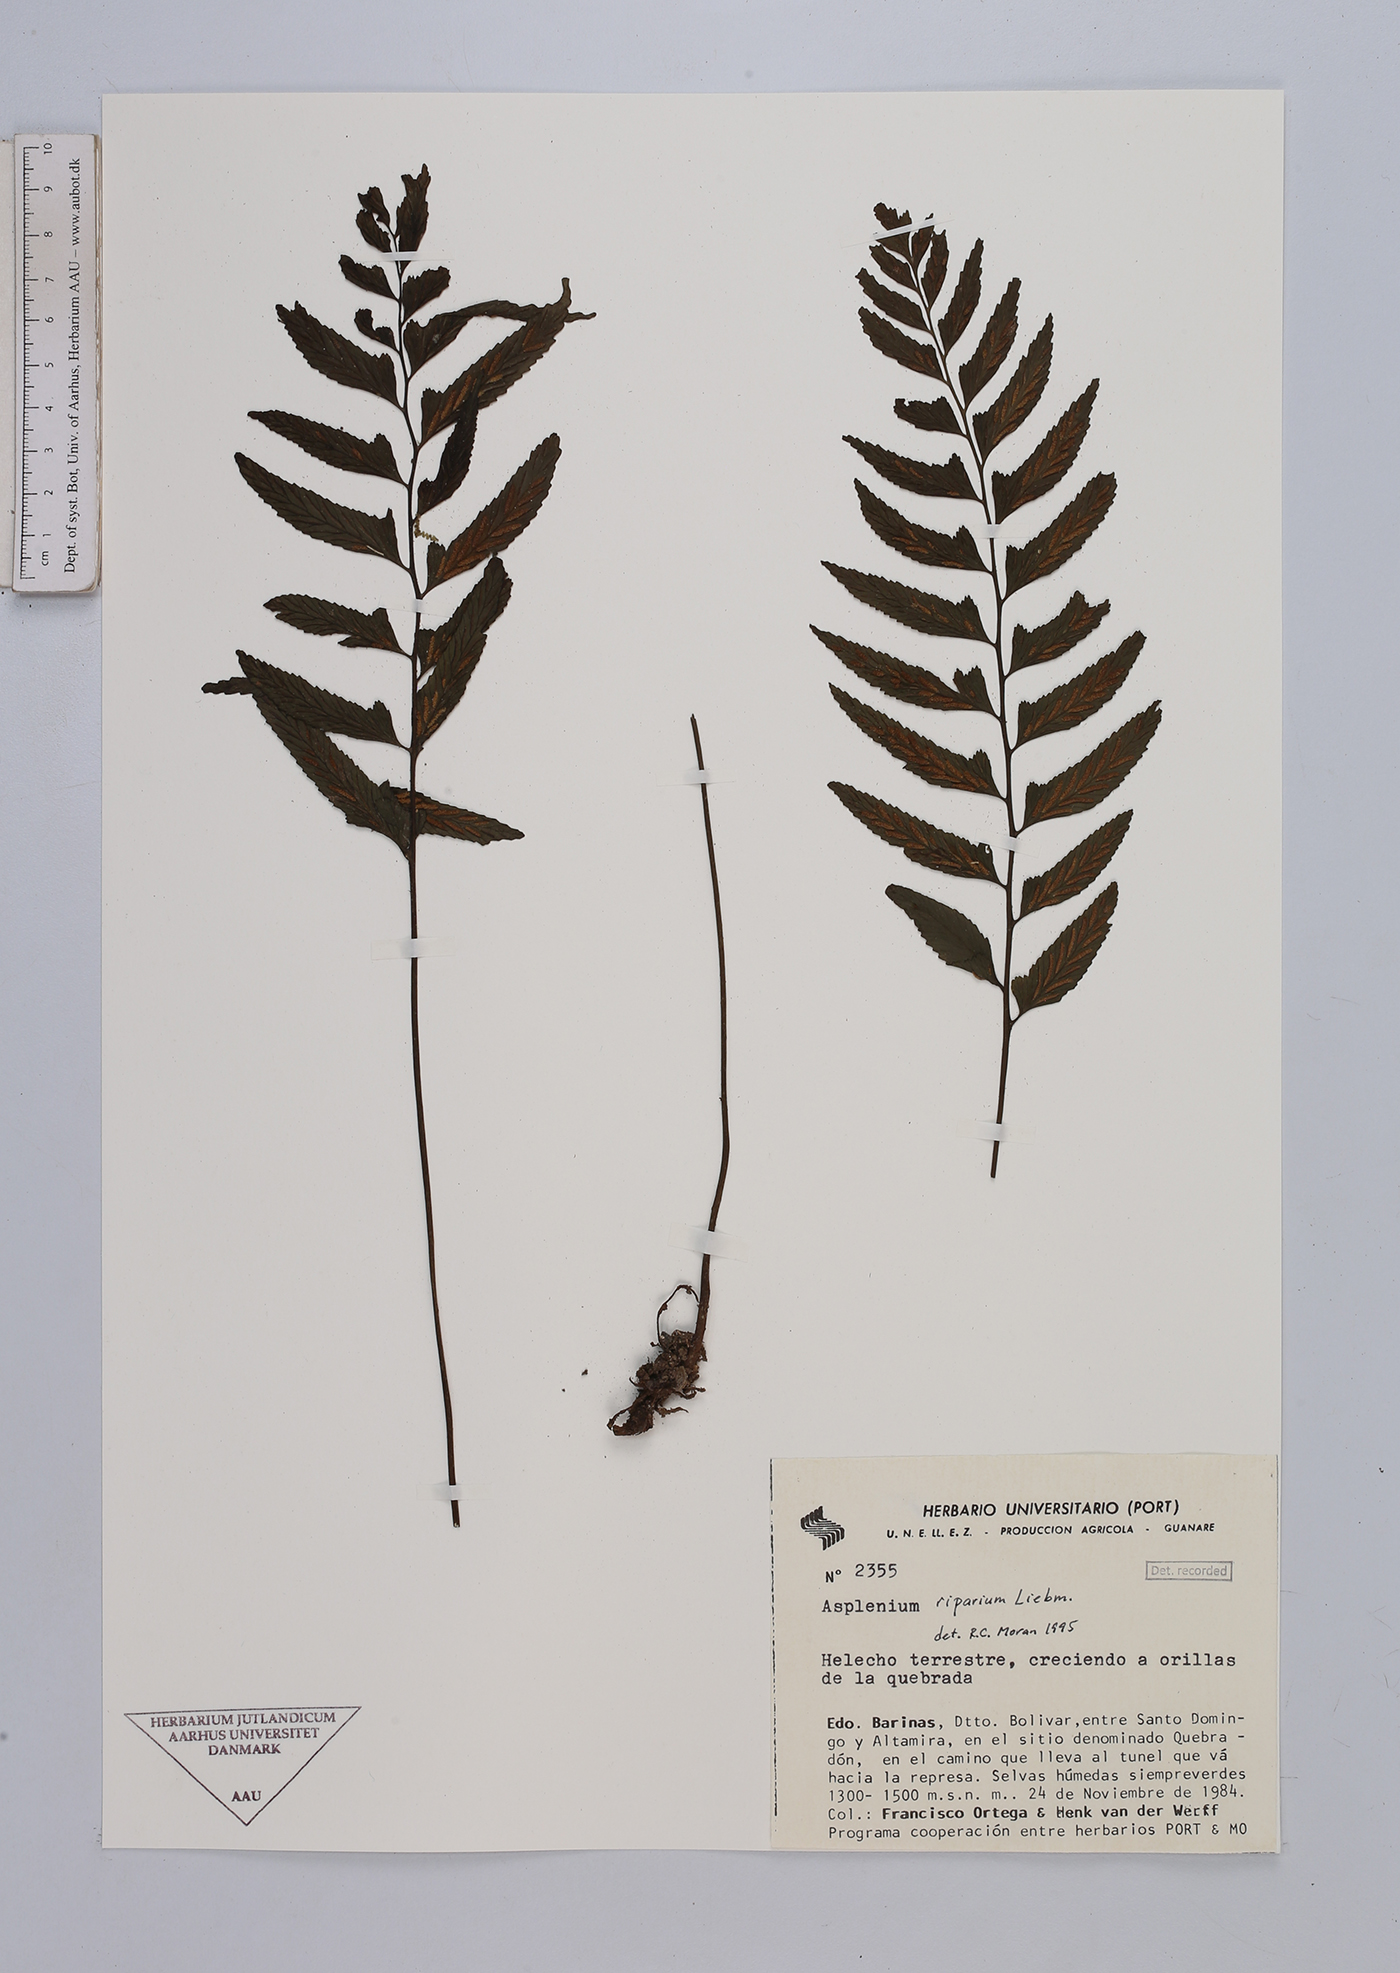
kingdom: Plantae
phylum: Tracheophyta
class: Polypodiopsida
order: Polypodiales
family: Aspleniaceae
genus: Hymenasplenium
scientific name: Hymenasplenium riparium
